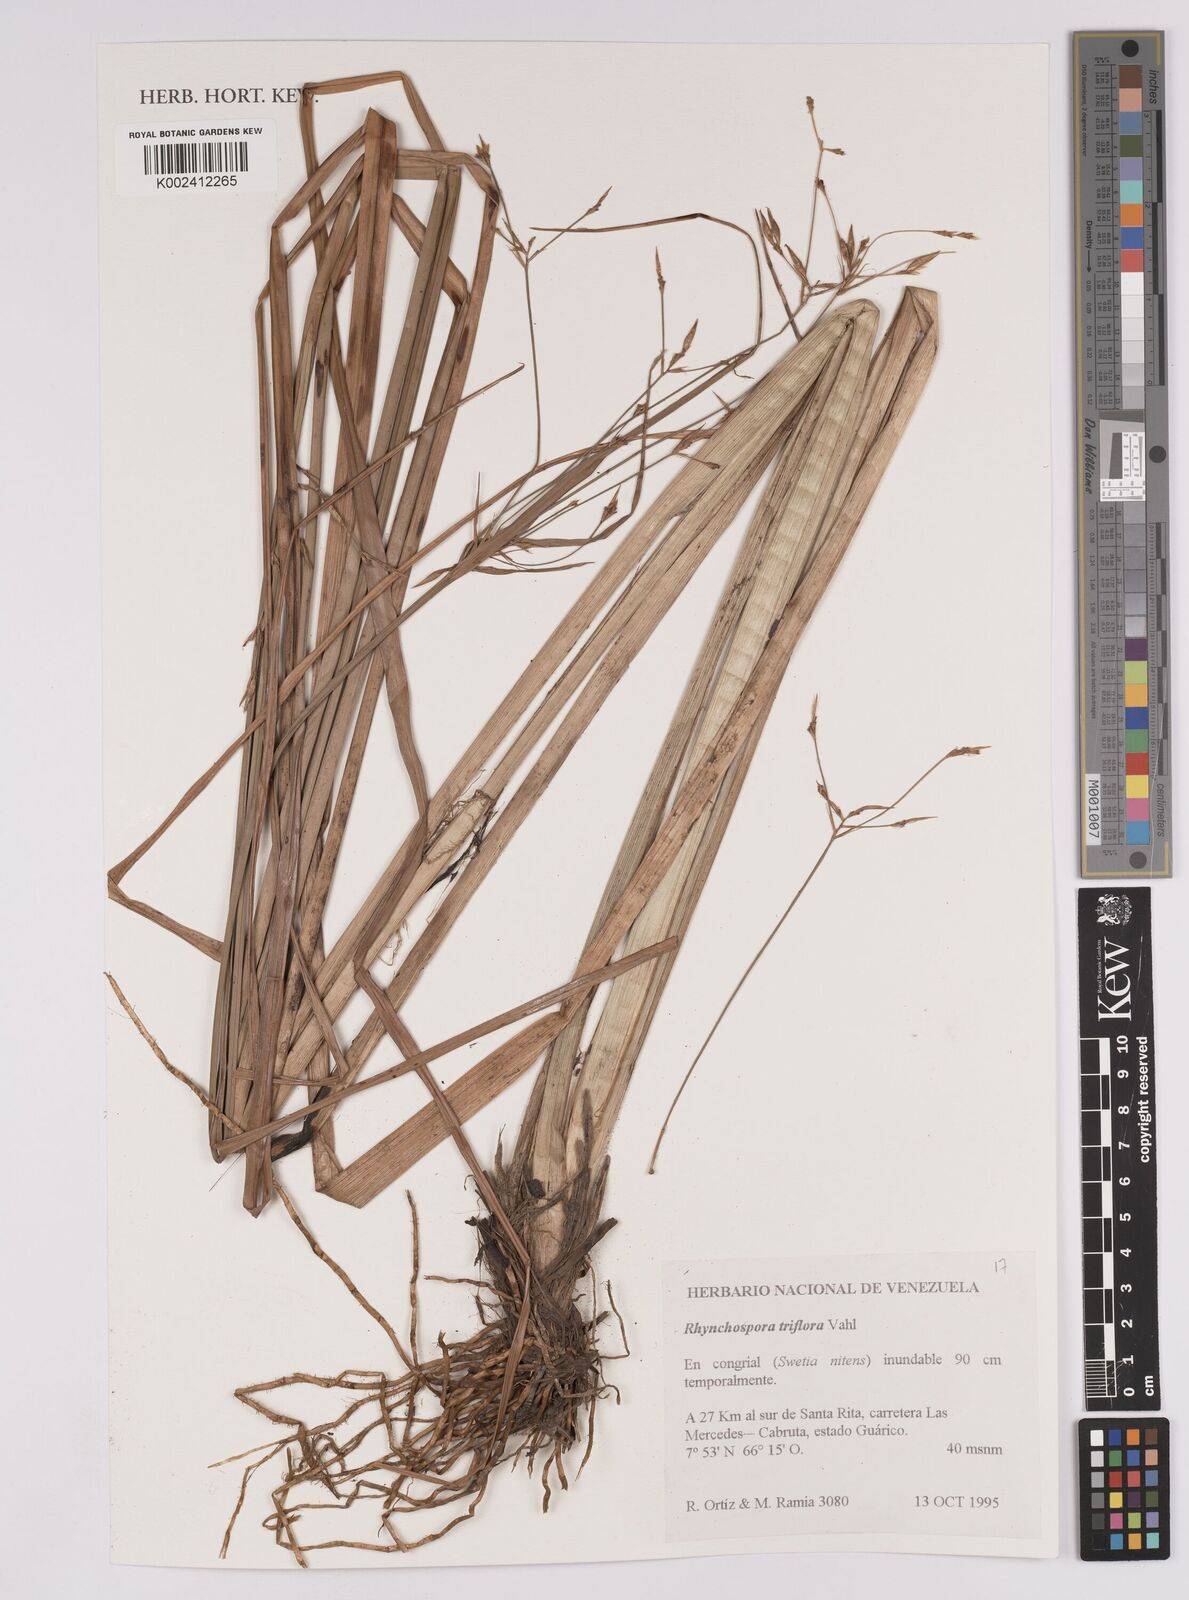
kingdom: Plantae
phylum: Tracheophyta
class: Liliopsida
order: Poales
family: Cyperaceae
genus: Rhynchospora
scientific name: Rhynchospora triflora
